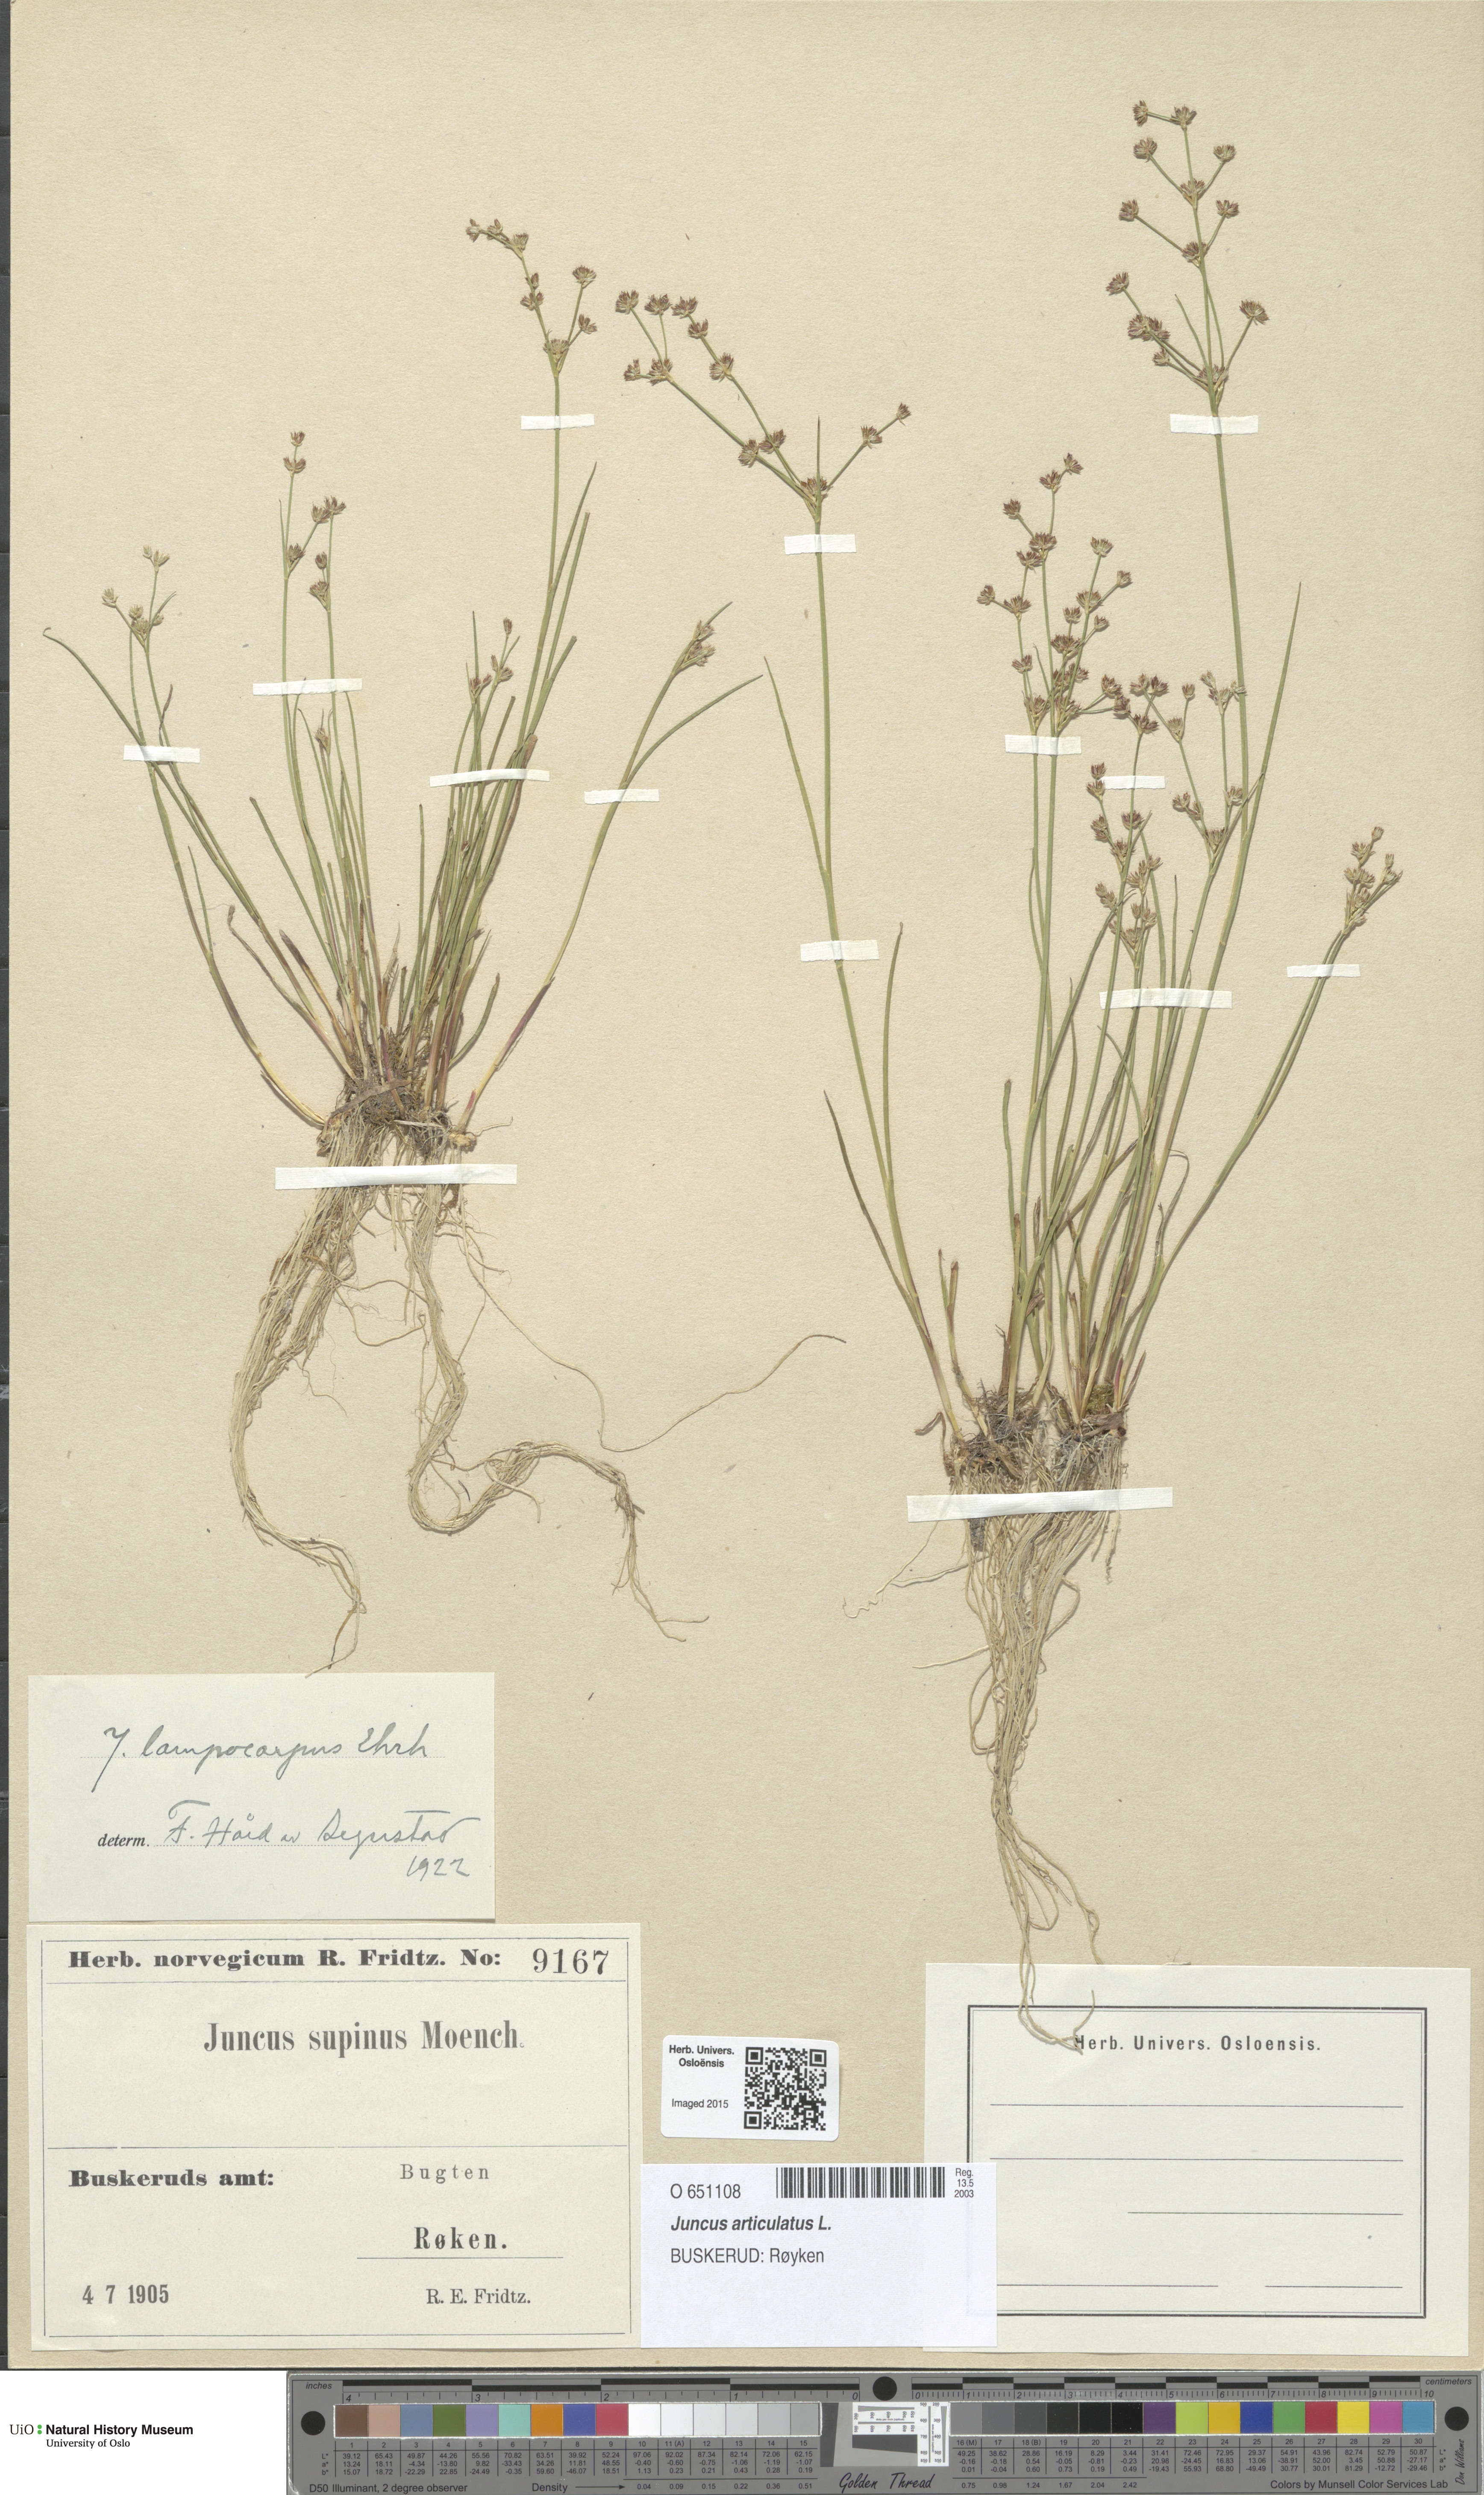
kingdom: Plantae
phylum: Tracheophyta
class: Liliopsida
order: Poales
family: Juncaceae
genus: Juncus
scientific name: Juncus articulatus
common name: Jointed rush
